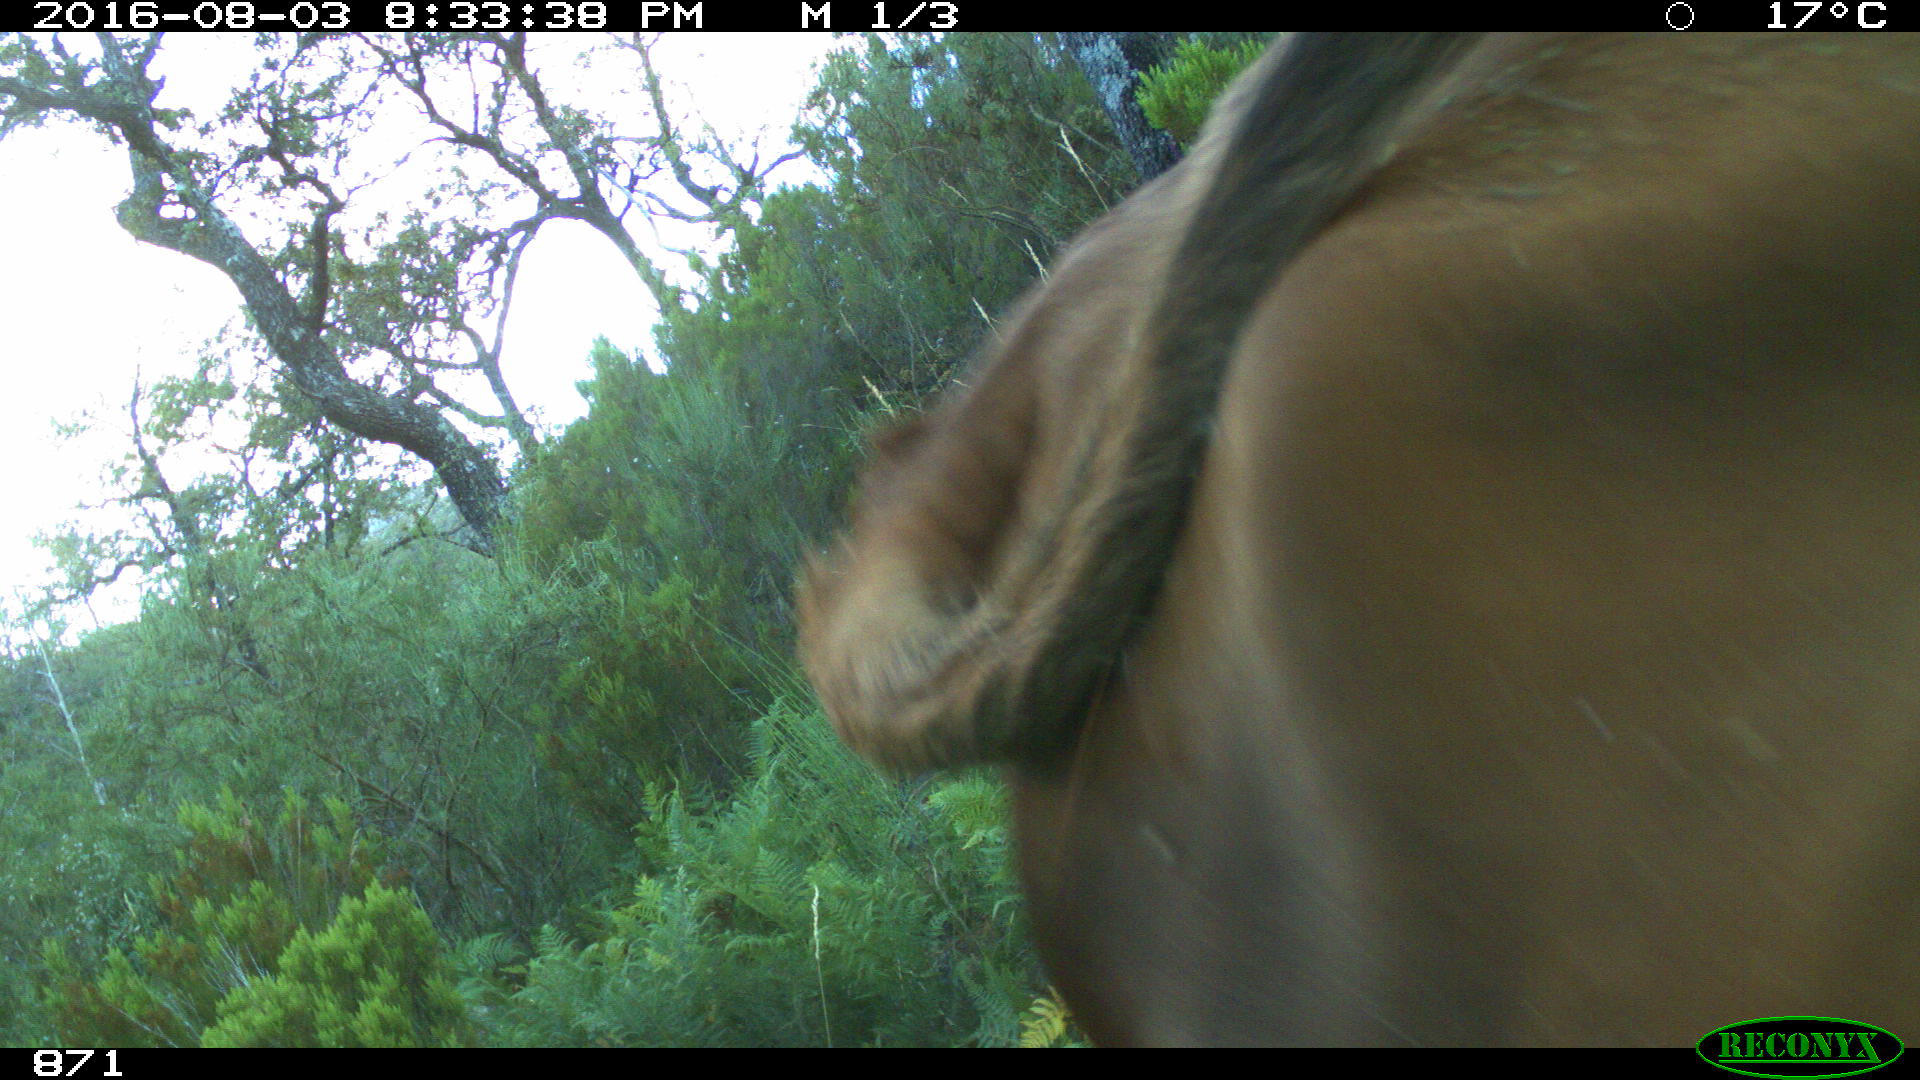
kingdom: Animalia
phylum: Chordata
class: Mammalia
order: Artiodactyla
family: Bovidae
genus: Bos
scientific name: Bos taurus
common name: Domesticated cattle
